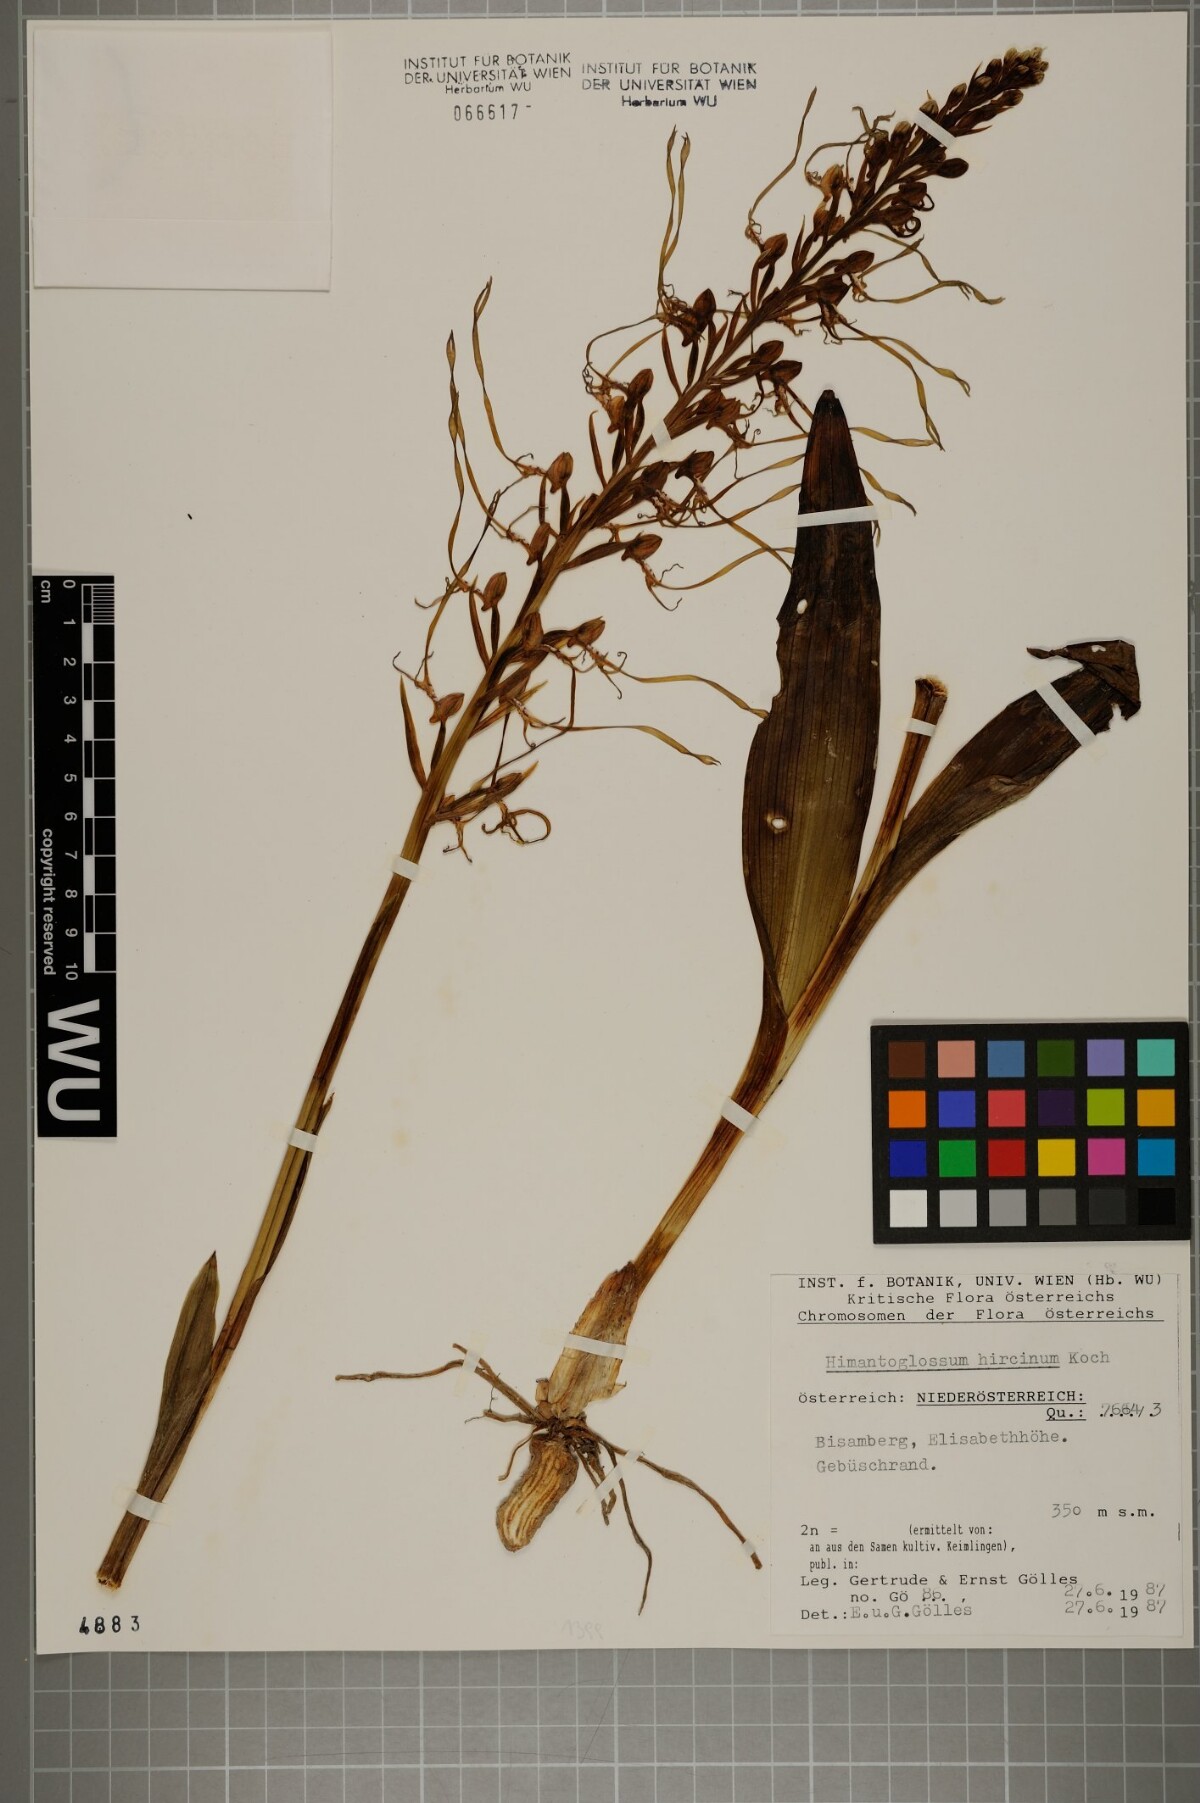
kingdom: Plantae
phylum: Tracheophyta
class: Liliopsida
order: Asparagales
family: Orchidaceae
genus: Himantoglossum
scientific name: Himantoglossum hircinum
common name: Lizard orchid
